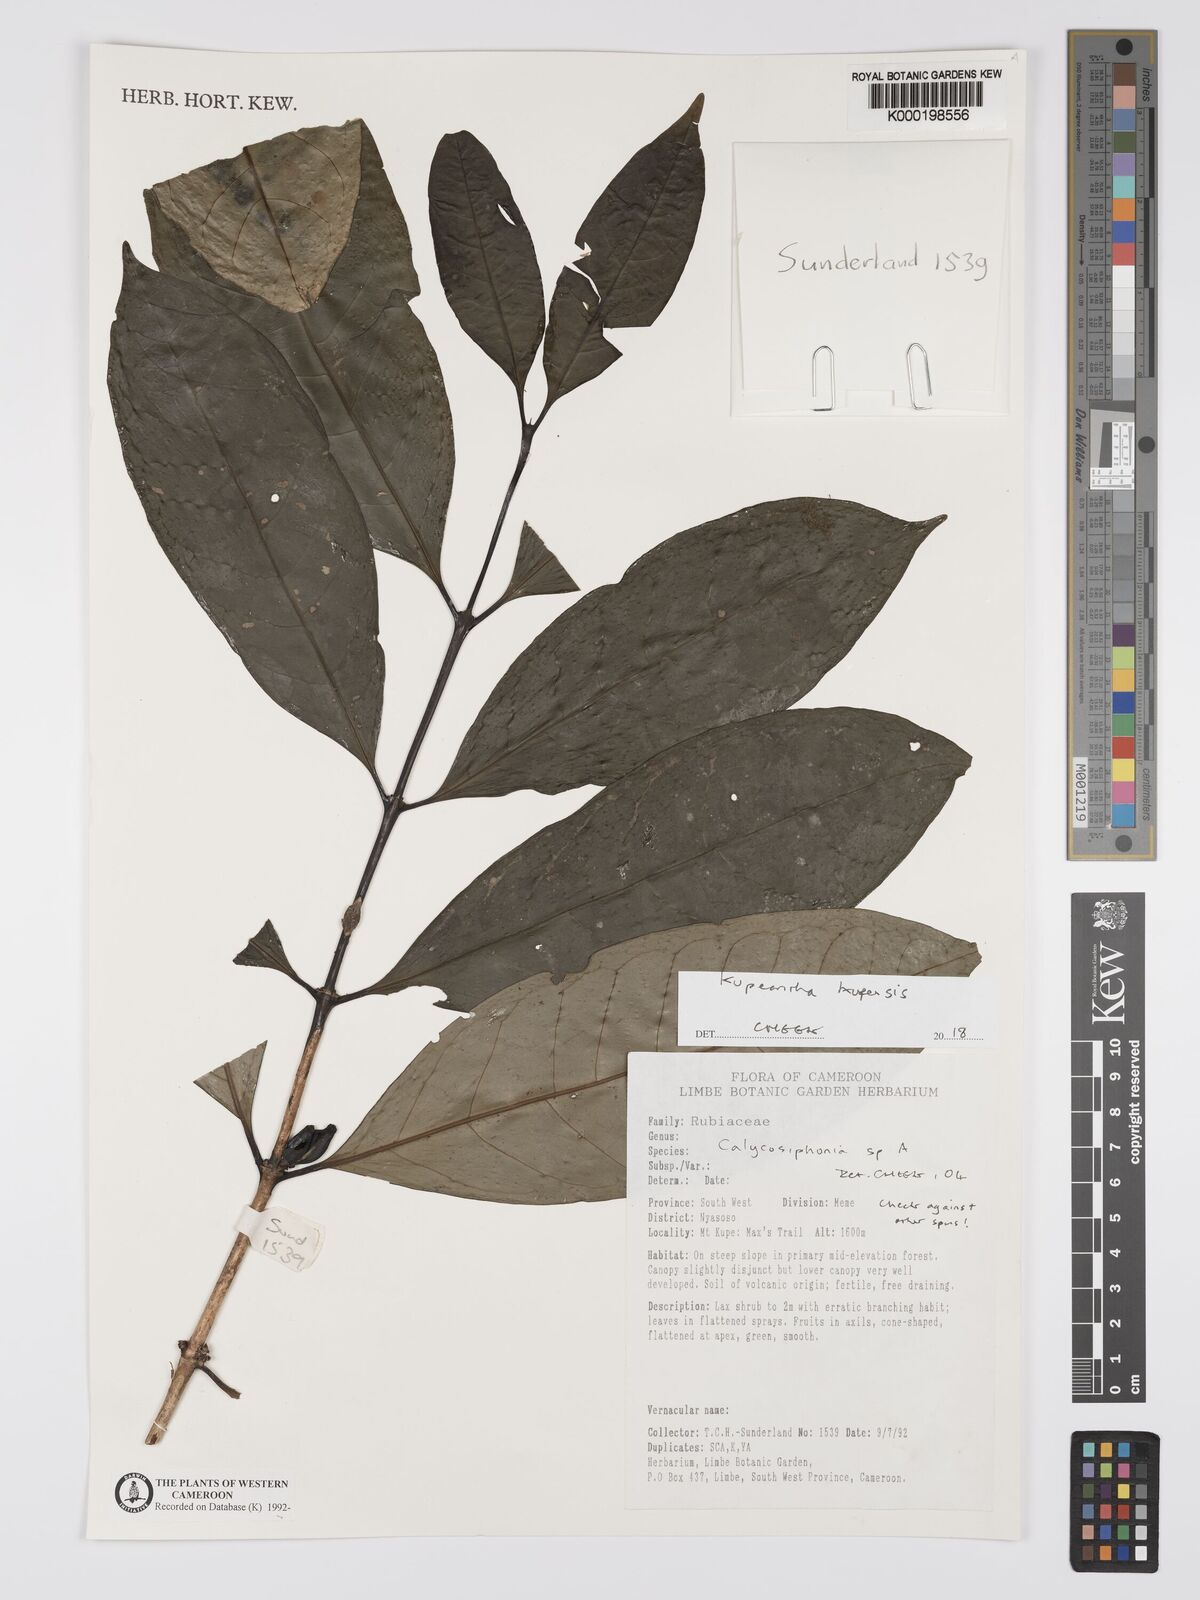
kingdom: Plantae
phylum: Tracheophyta
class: Magnoliopsida
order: Gentianales
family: Rubiaceae
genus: Argocoffeopsis
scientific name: Argocoffeopsis
